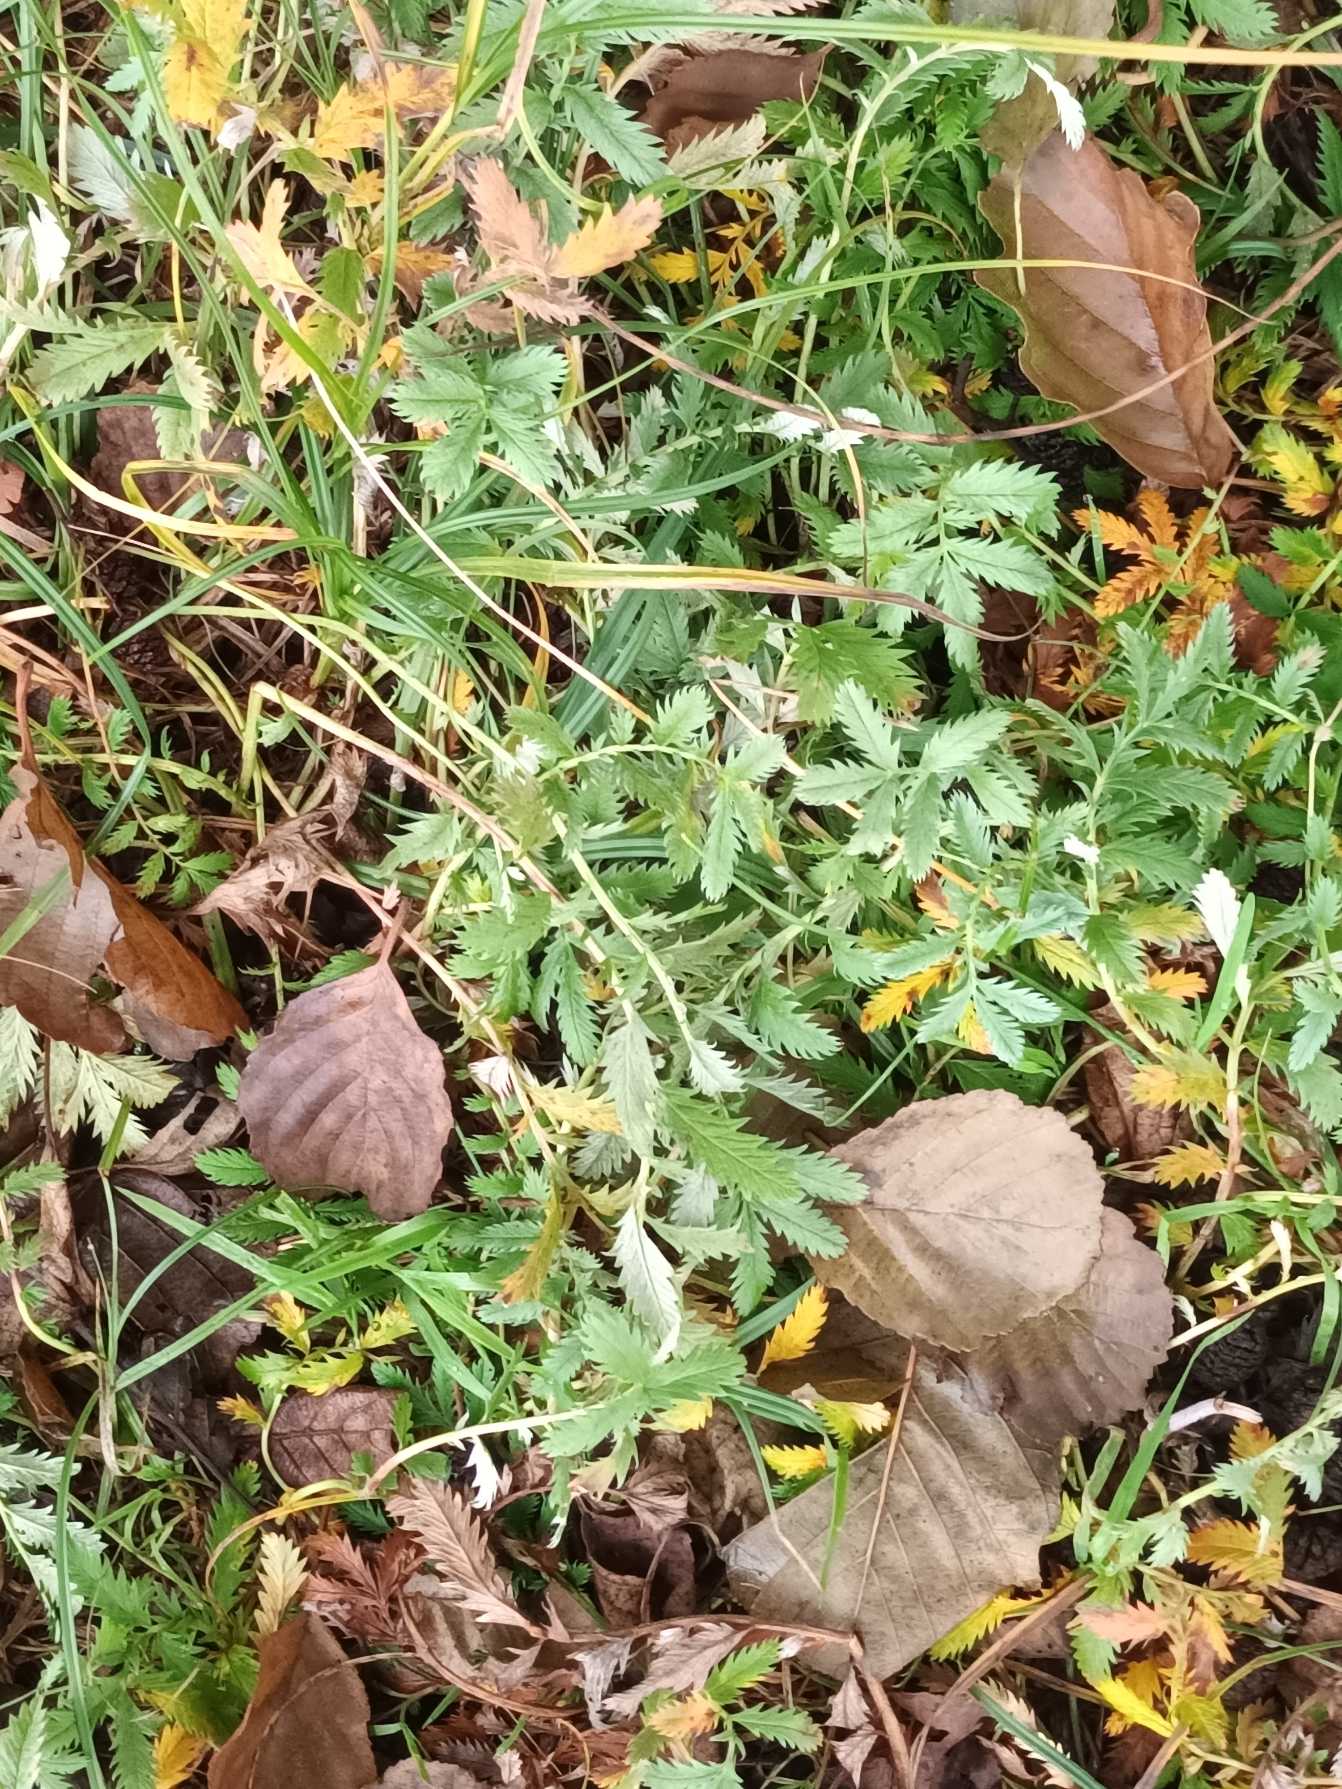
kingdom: Plantae
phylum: Tracheophyta
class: Magnoliopsida
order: Rosales
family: Rosaceae
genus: Argentina
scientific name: Argentina anserina
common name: Gåsepotentil
